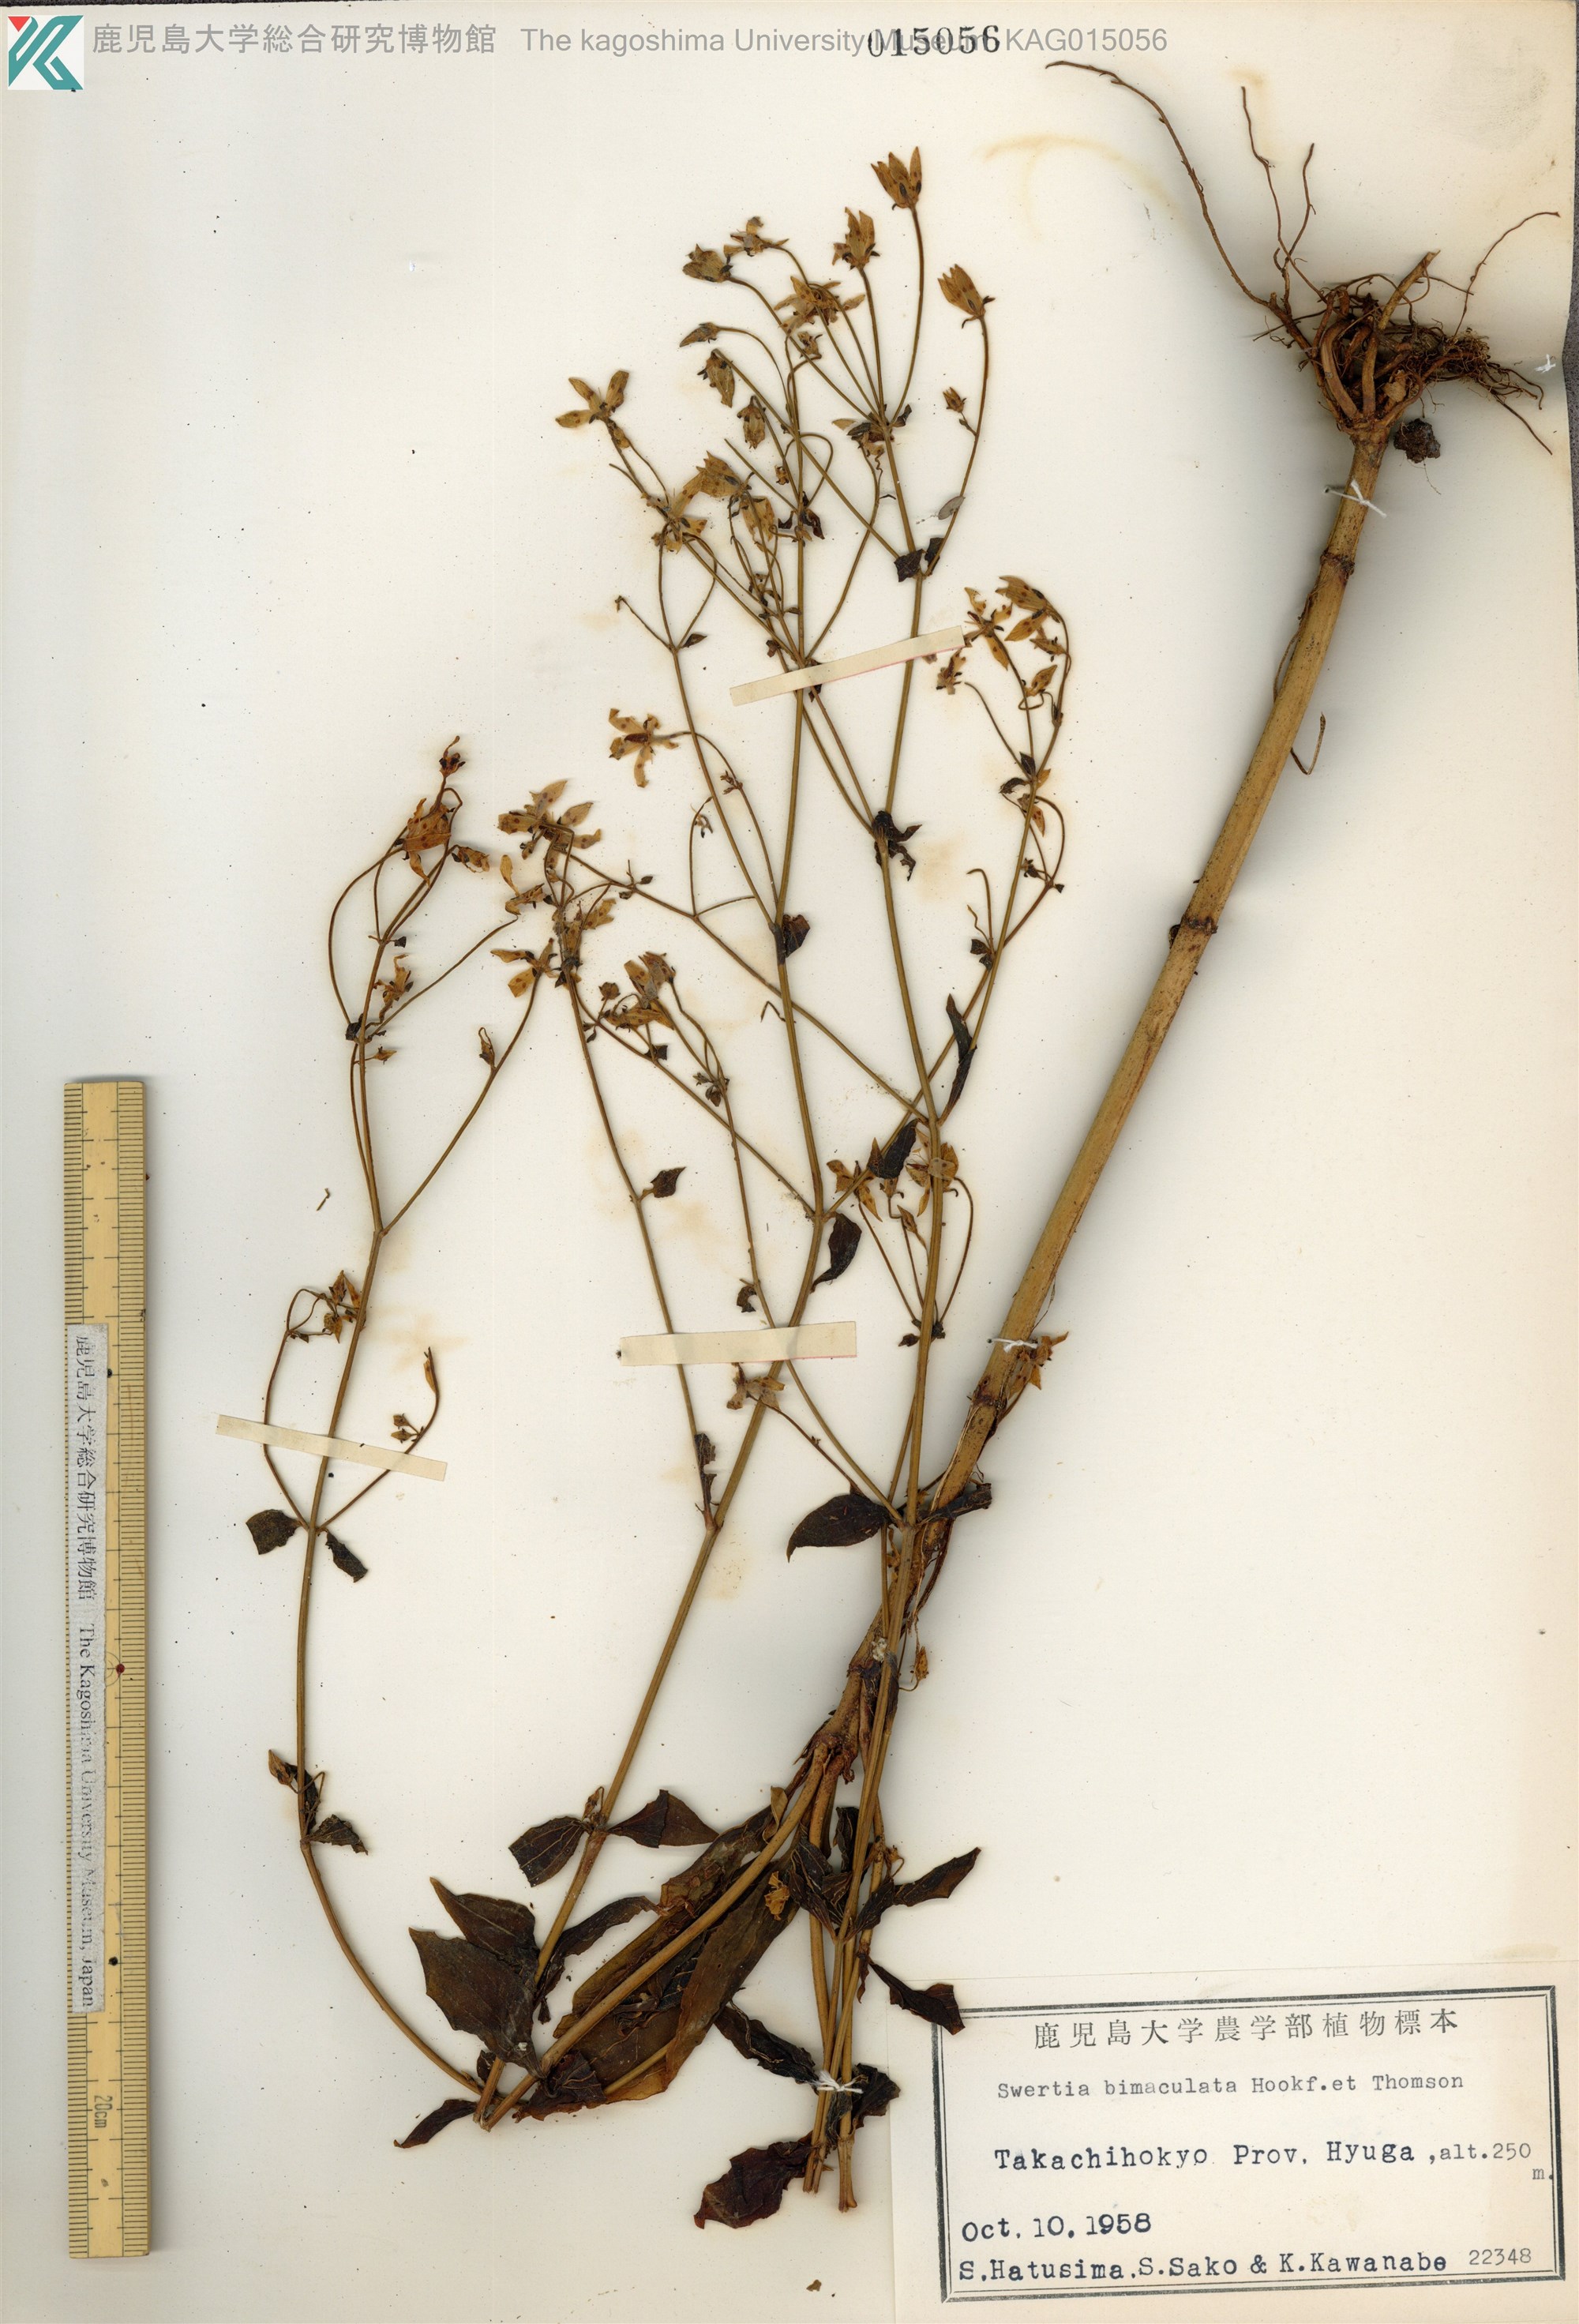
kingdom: Plantae
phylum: Tracheophyta
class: Magnoliopsida
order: Gentianales
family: Gentianaceae
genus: Swertia
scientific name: Swertia bimaculata
